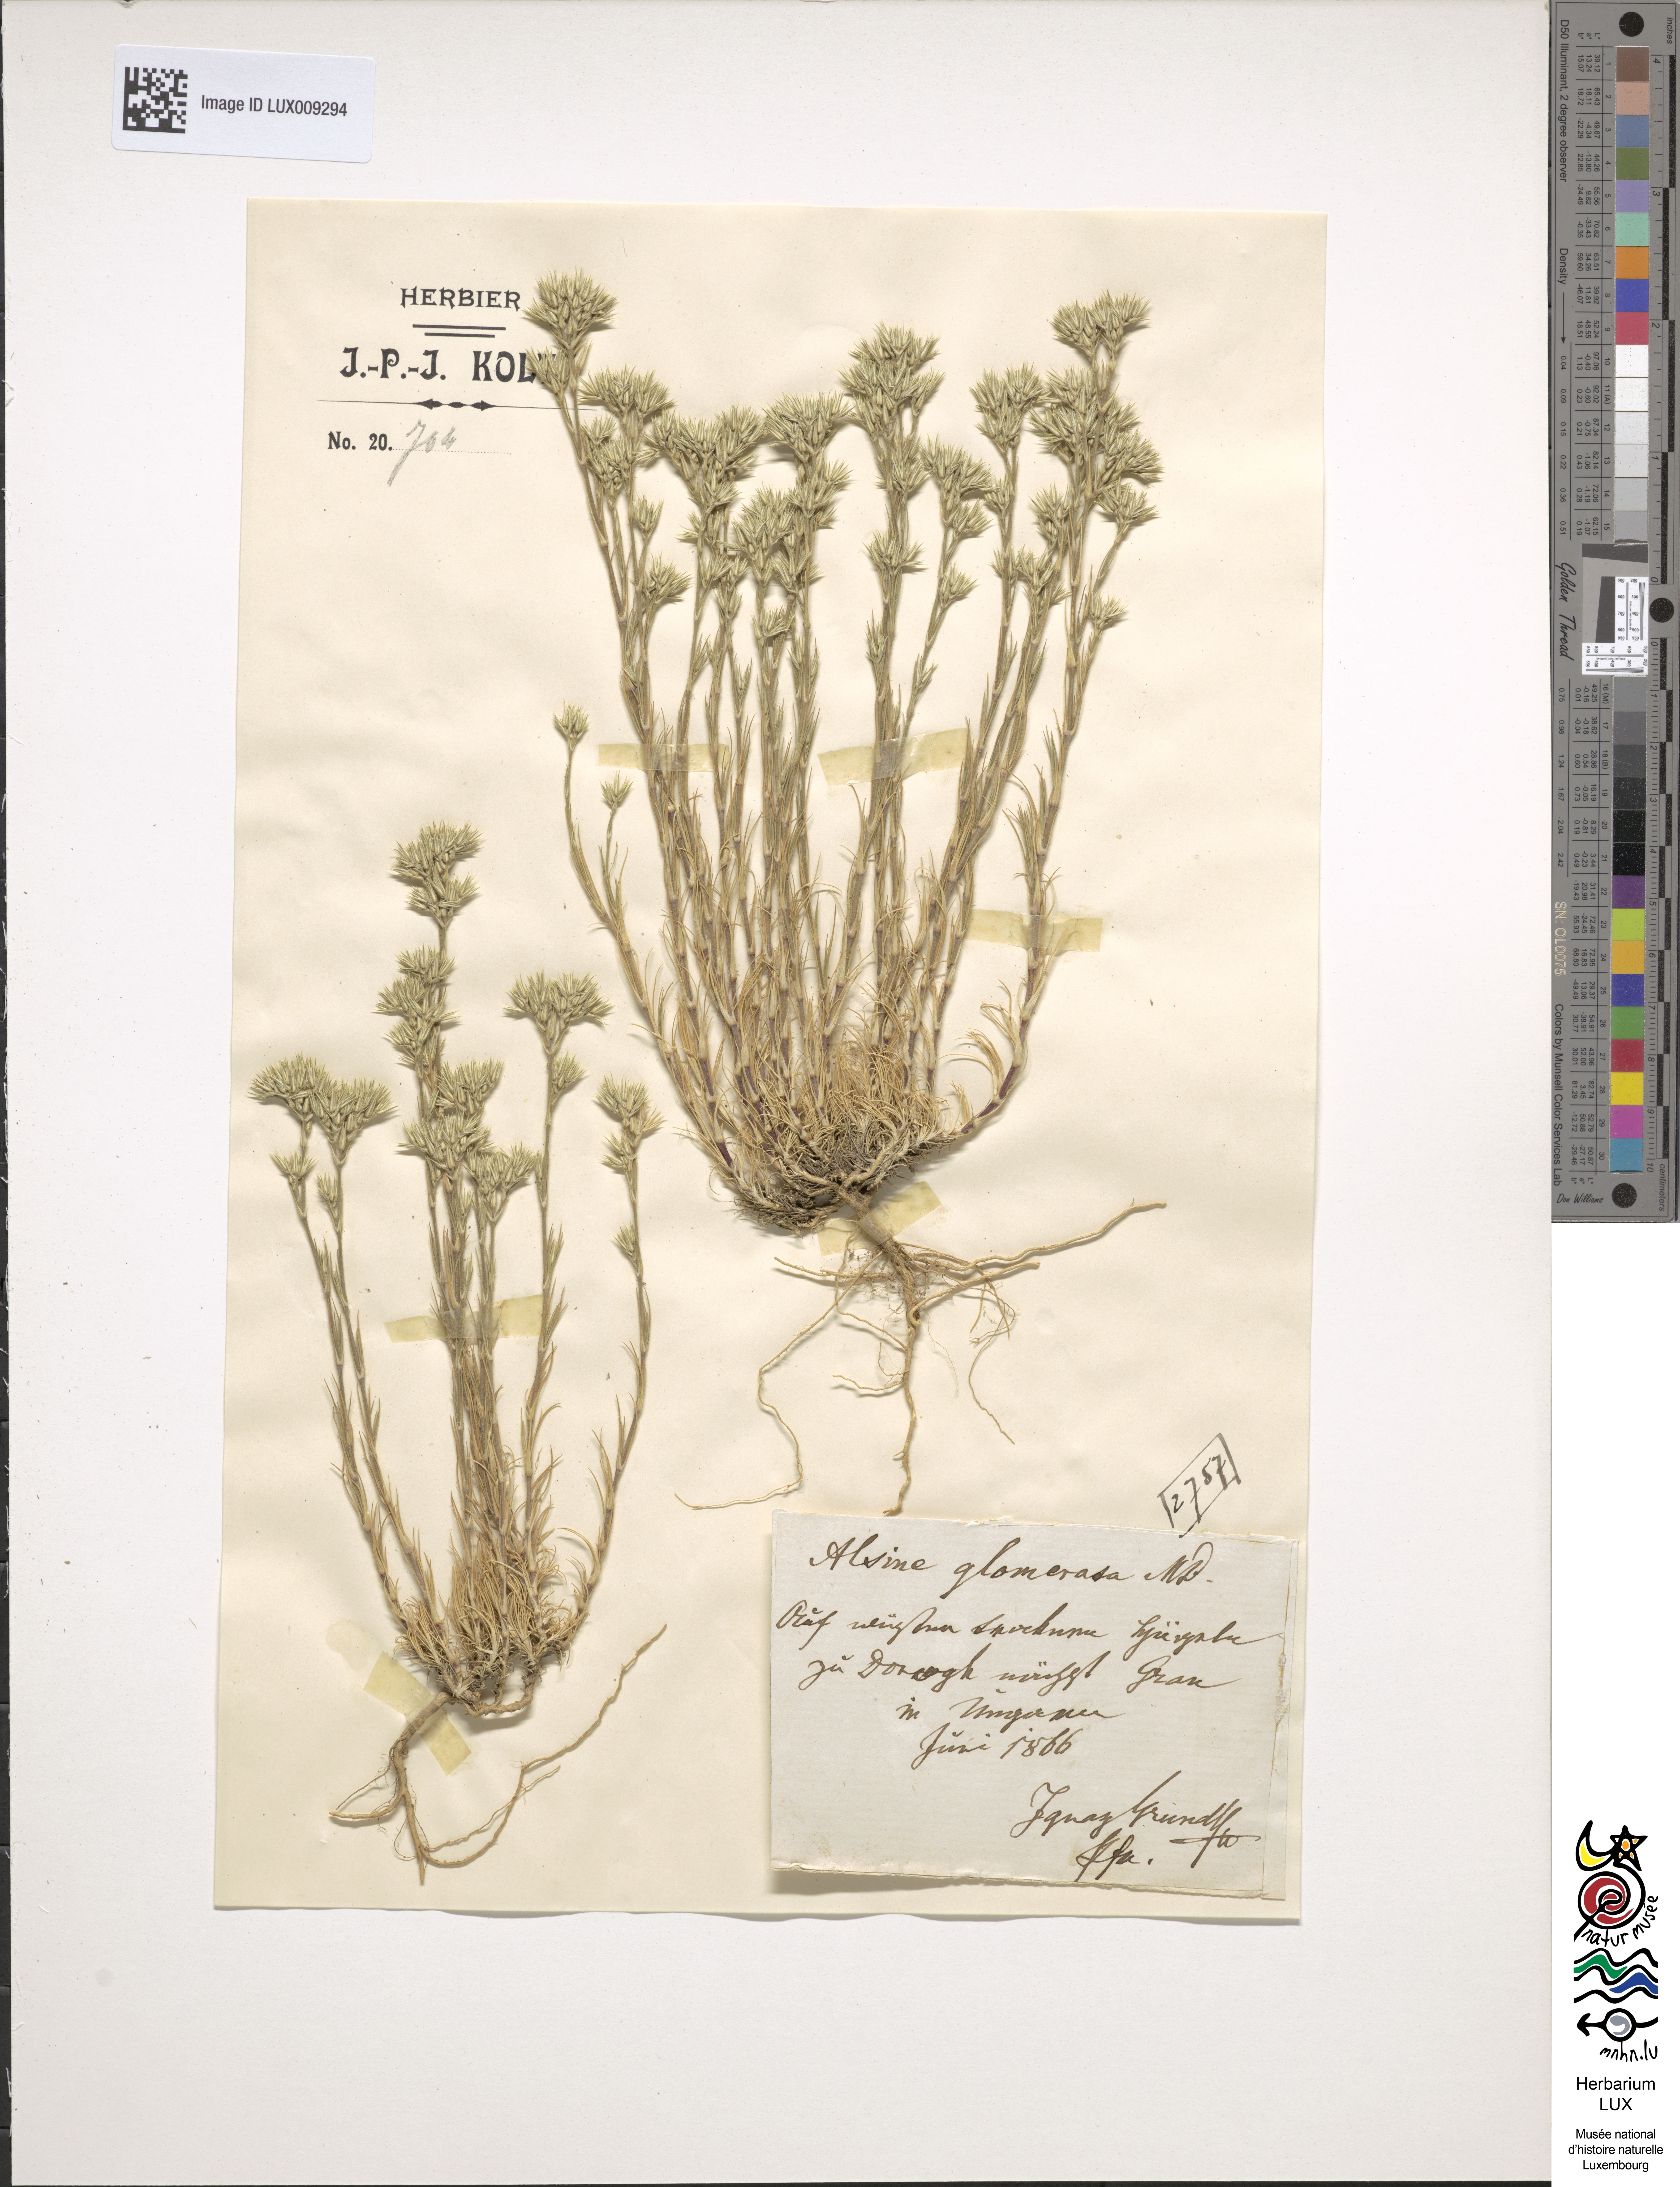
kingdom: Plantae
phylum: Tracheophyta
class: Magnoliopsida
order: Caryophyllales
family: Caryophyllaceae
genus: Minuartia
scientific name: Minuartia glomerata
